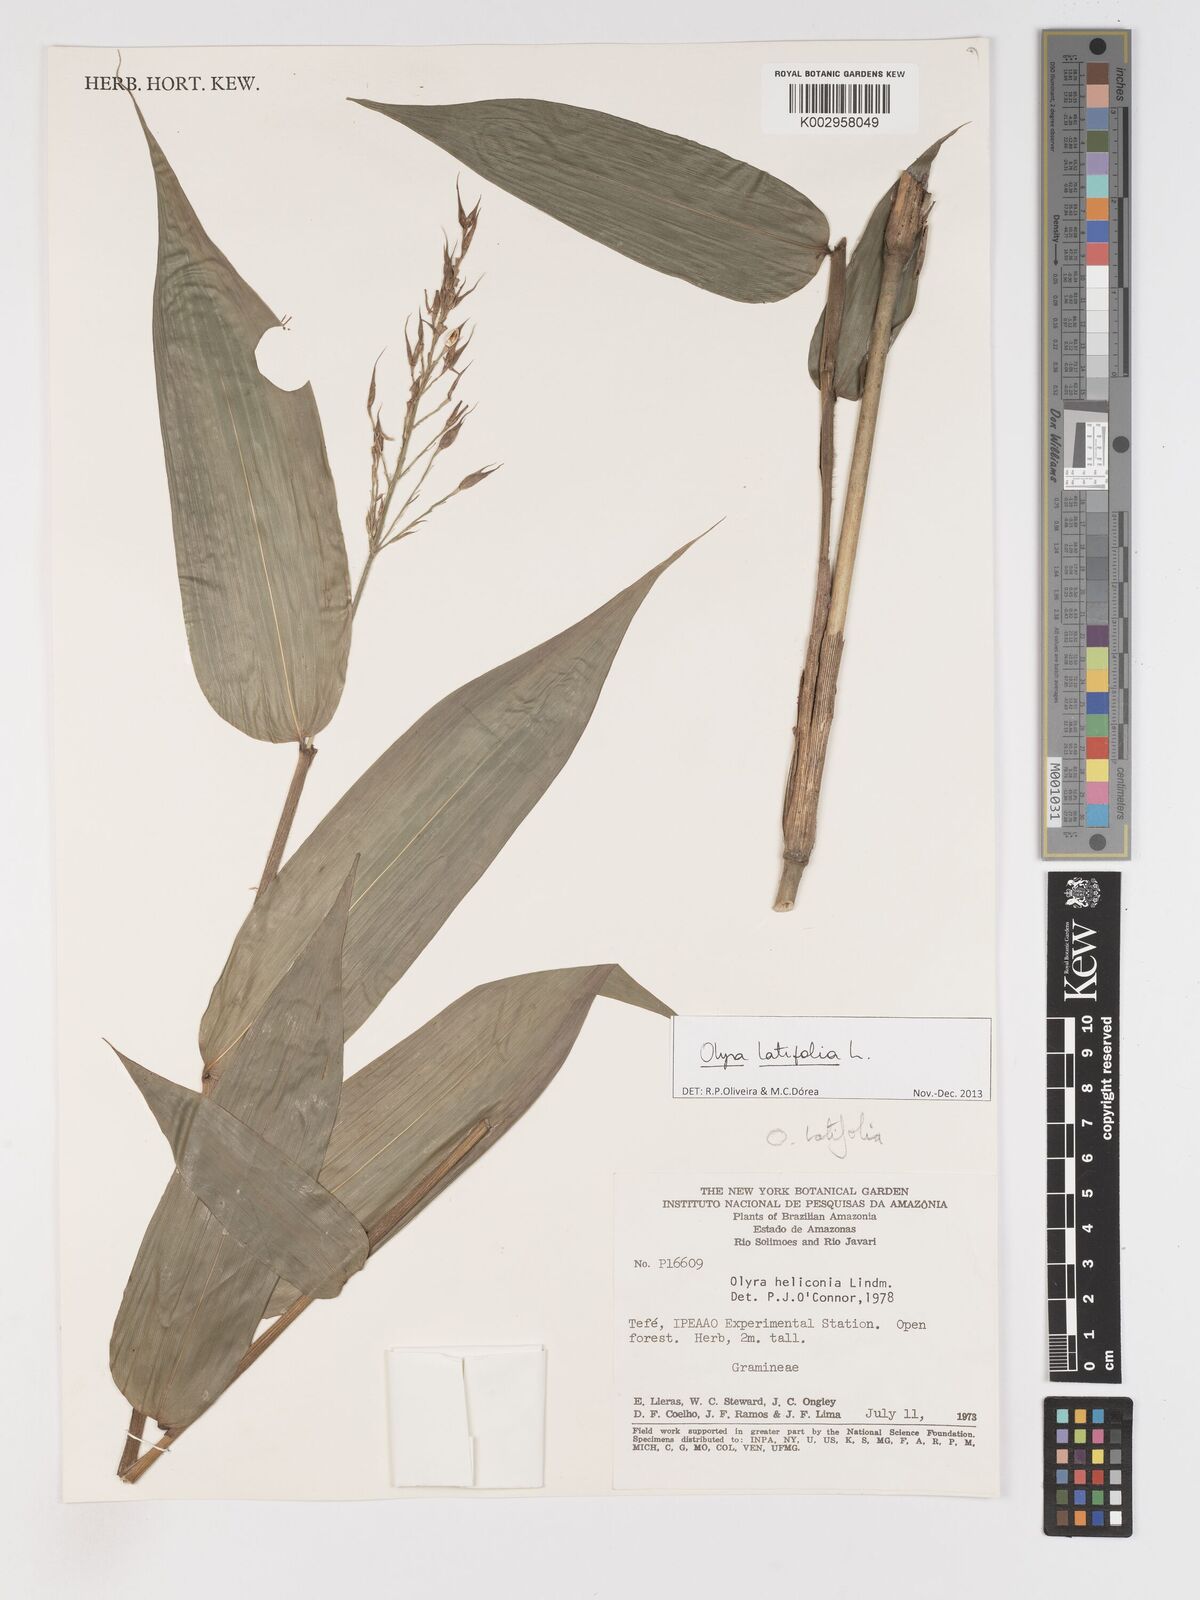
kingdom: Plantae
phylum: Tracheophyta
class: Liliopsida
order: Poales
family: Poaceae
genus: Olyra
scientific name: Olyra latifolia
